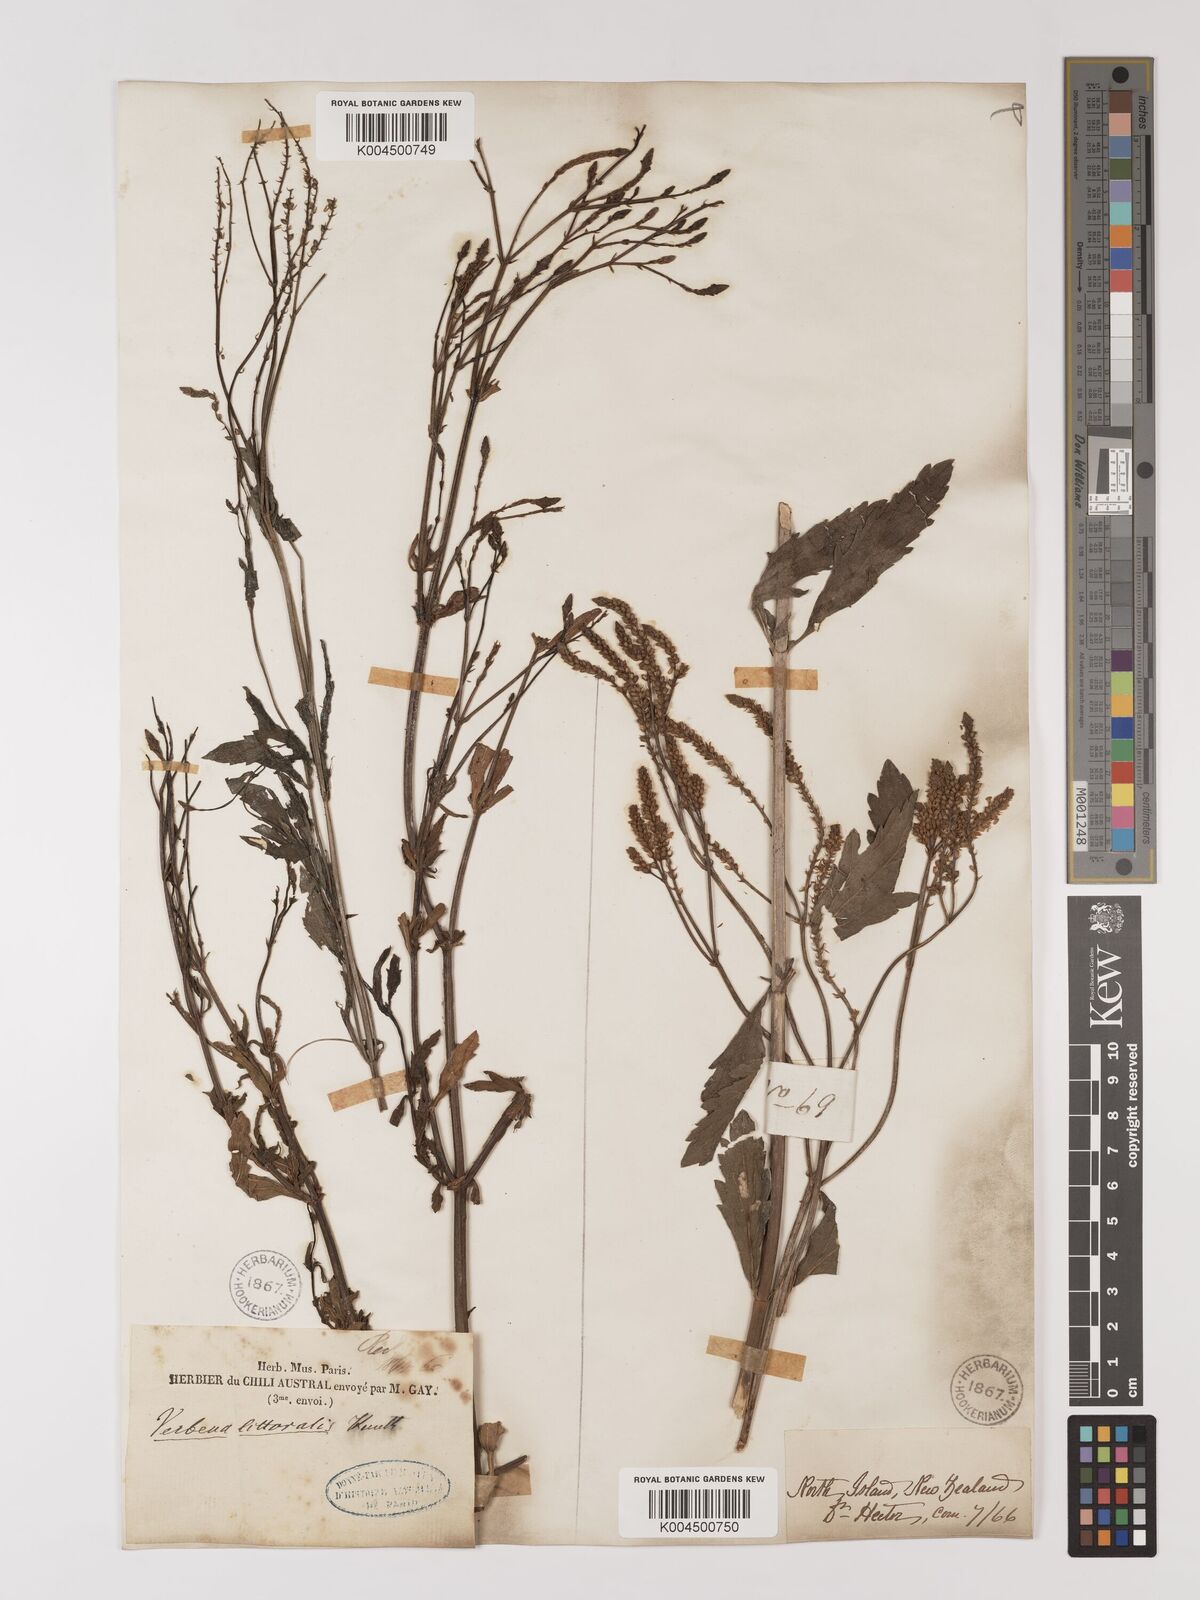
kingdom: Plantae
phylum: Tracheophyta
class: Magnoliopsida
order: Lamiales
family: Verbenaceae
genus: Verbena
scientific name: Verbena litoralis
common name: Seashore vervain
